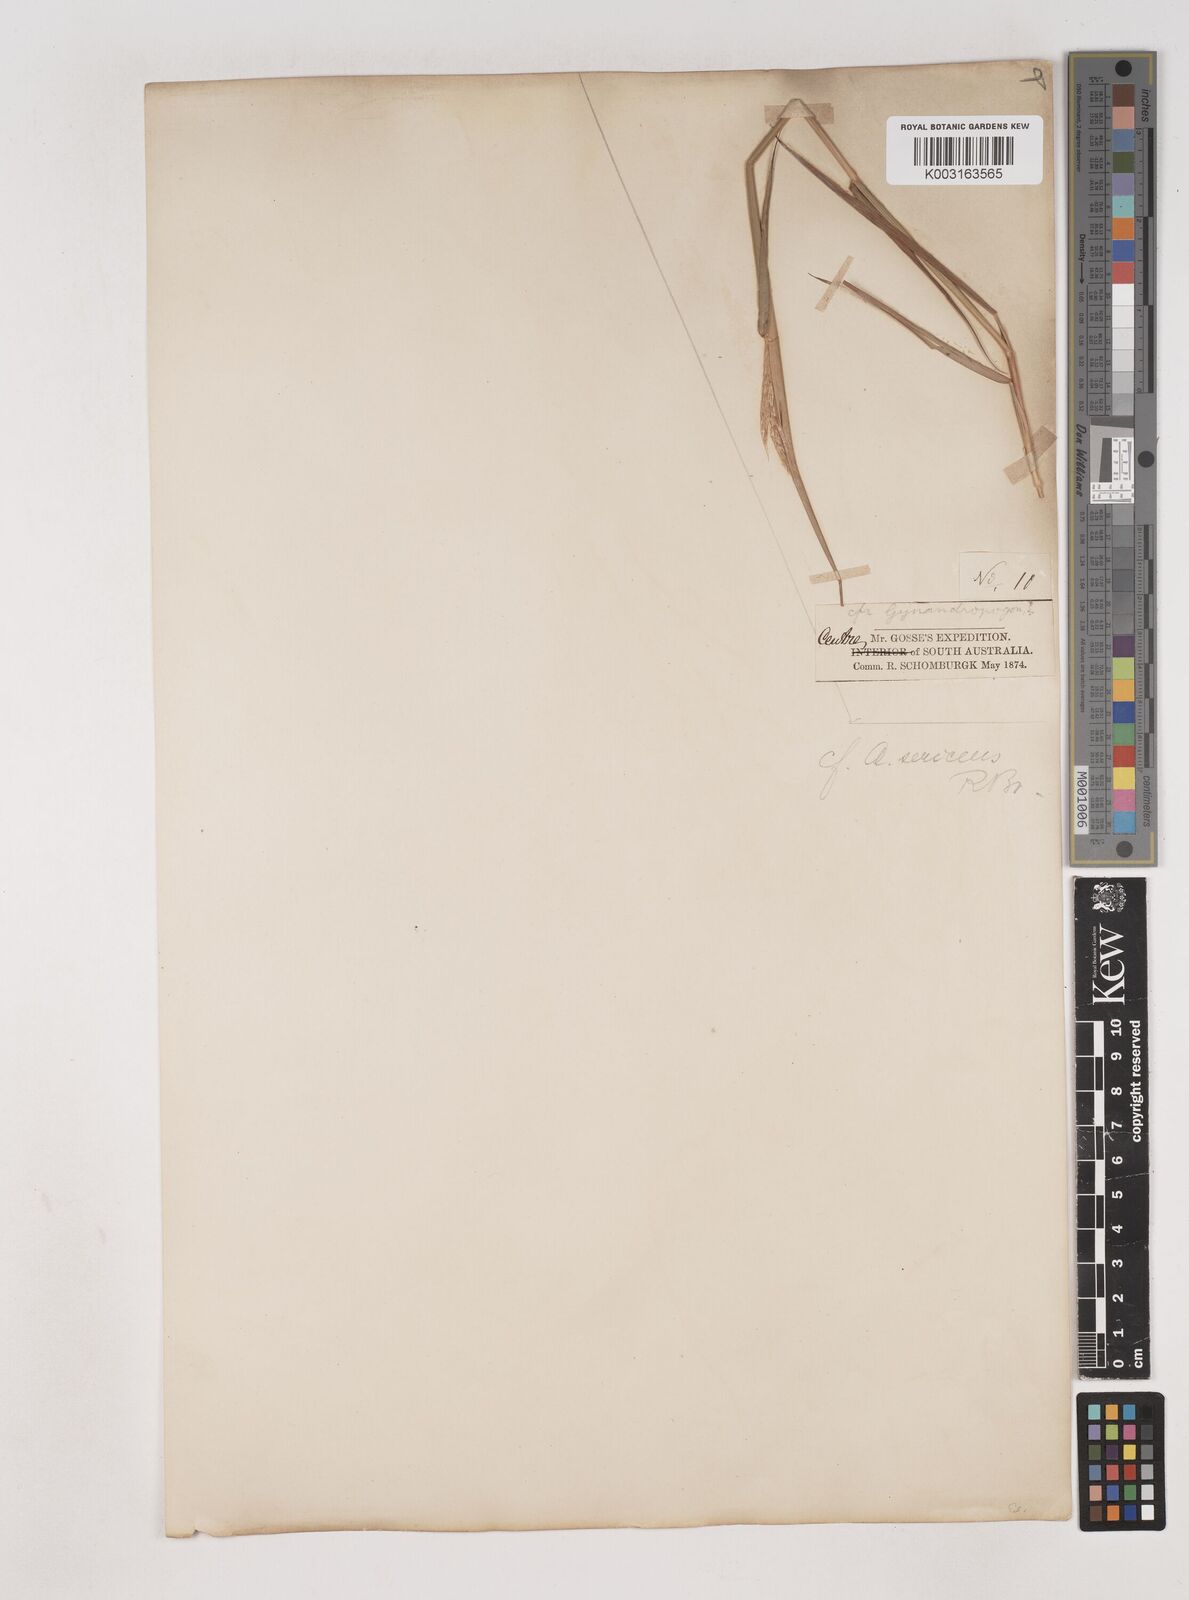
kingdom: Plantae
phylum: Tracheophyta
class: Liliopsida
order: Poales
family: Poaceae
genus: Dichanthium
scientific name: Dichanthium
